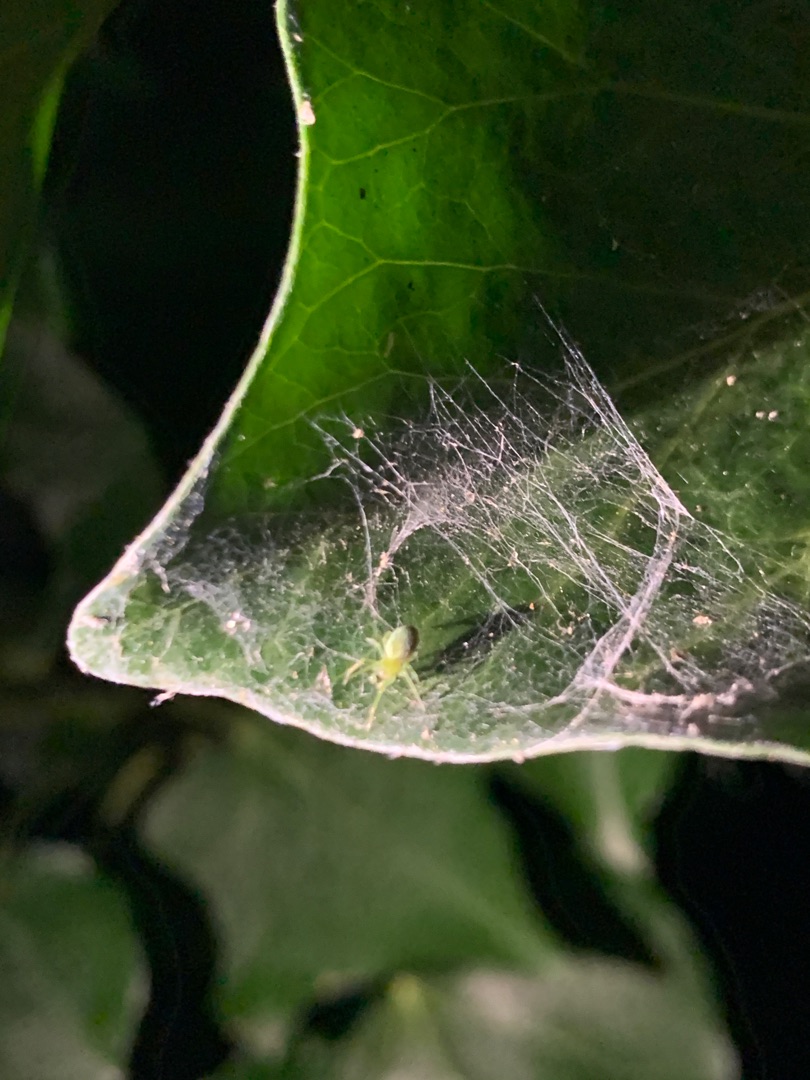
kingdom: Animalia
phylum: Arthropoda
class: Arachnida
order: Araneae
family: Dictynidae
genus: Nigma
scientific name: Nigma walckenaeri
